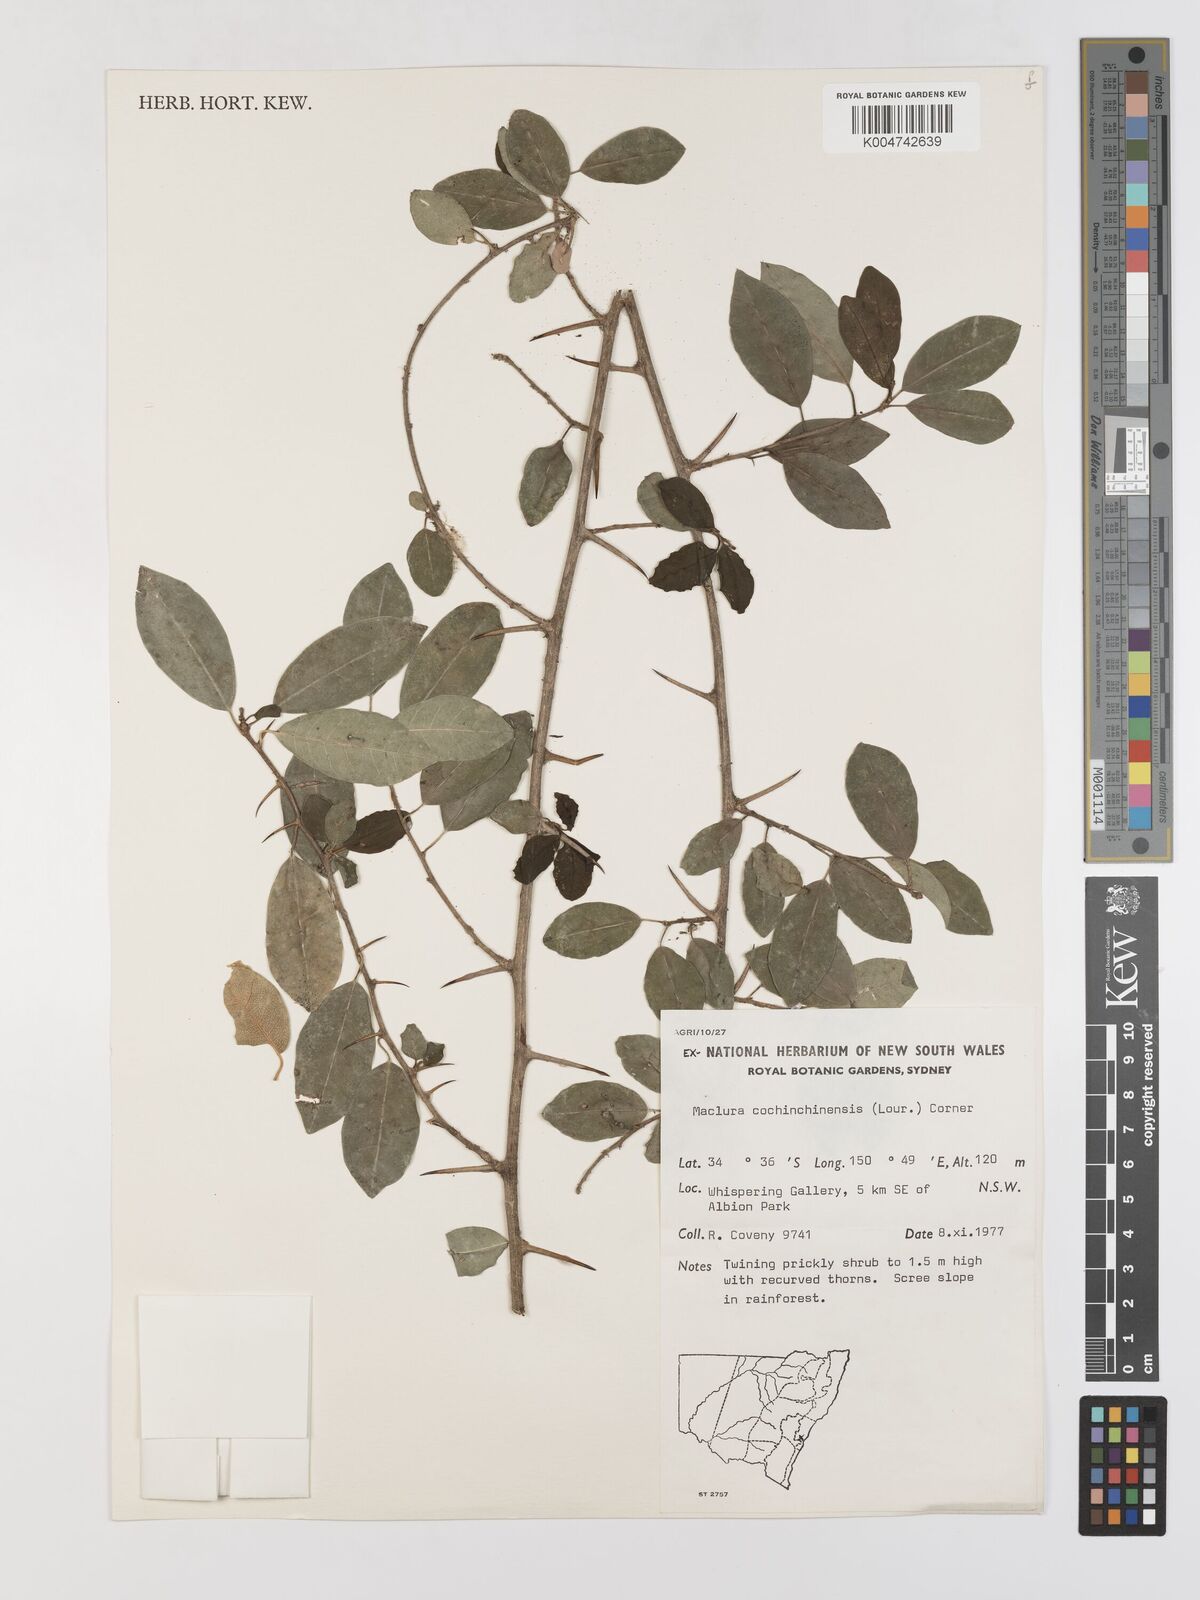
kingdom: Plantae
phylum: Tracheophyta
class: Magnoliopsida
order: Rosales
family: Moraceae
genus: Maclura
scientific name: Maclura cochinchinensis
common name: Cockspurthorn
